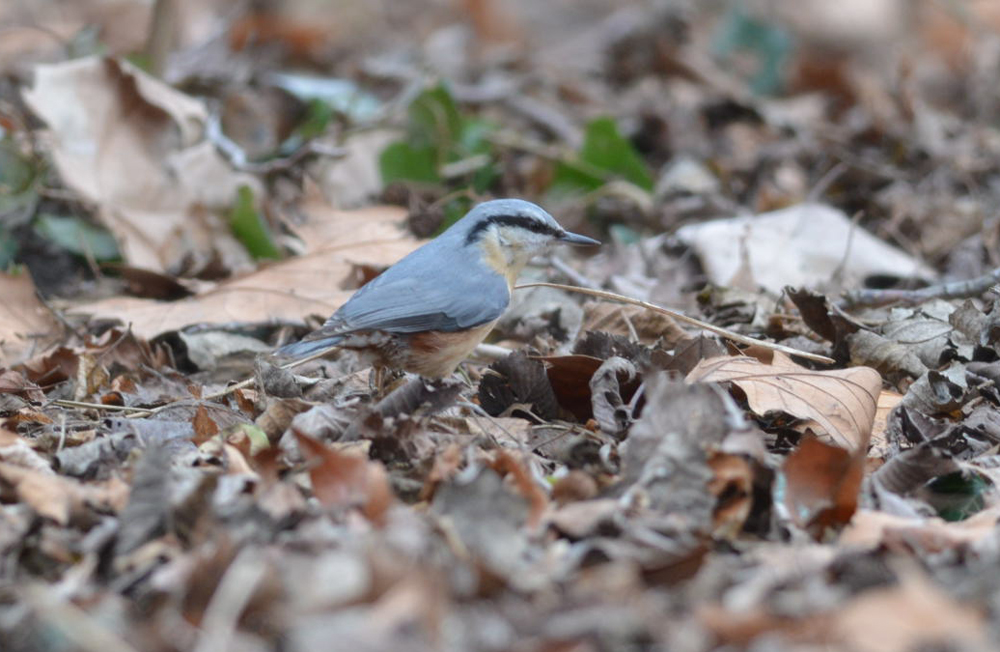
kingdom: Animalia
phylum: Chordata
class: Aves
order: Passeriformes
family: Sittidae
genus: Sitta
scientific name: Sitta europaea
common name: Eurasian nuthatch
